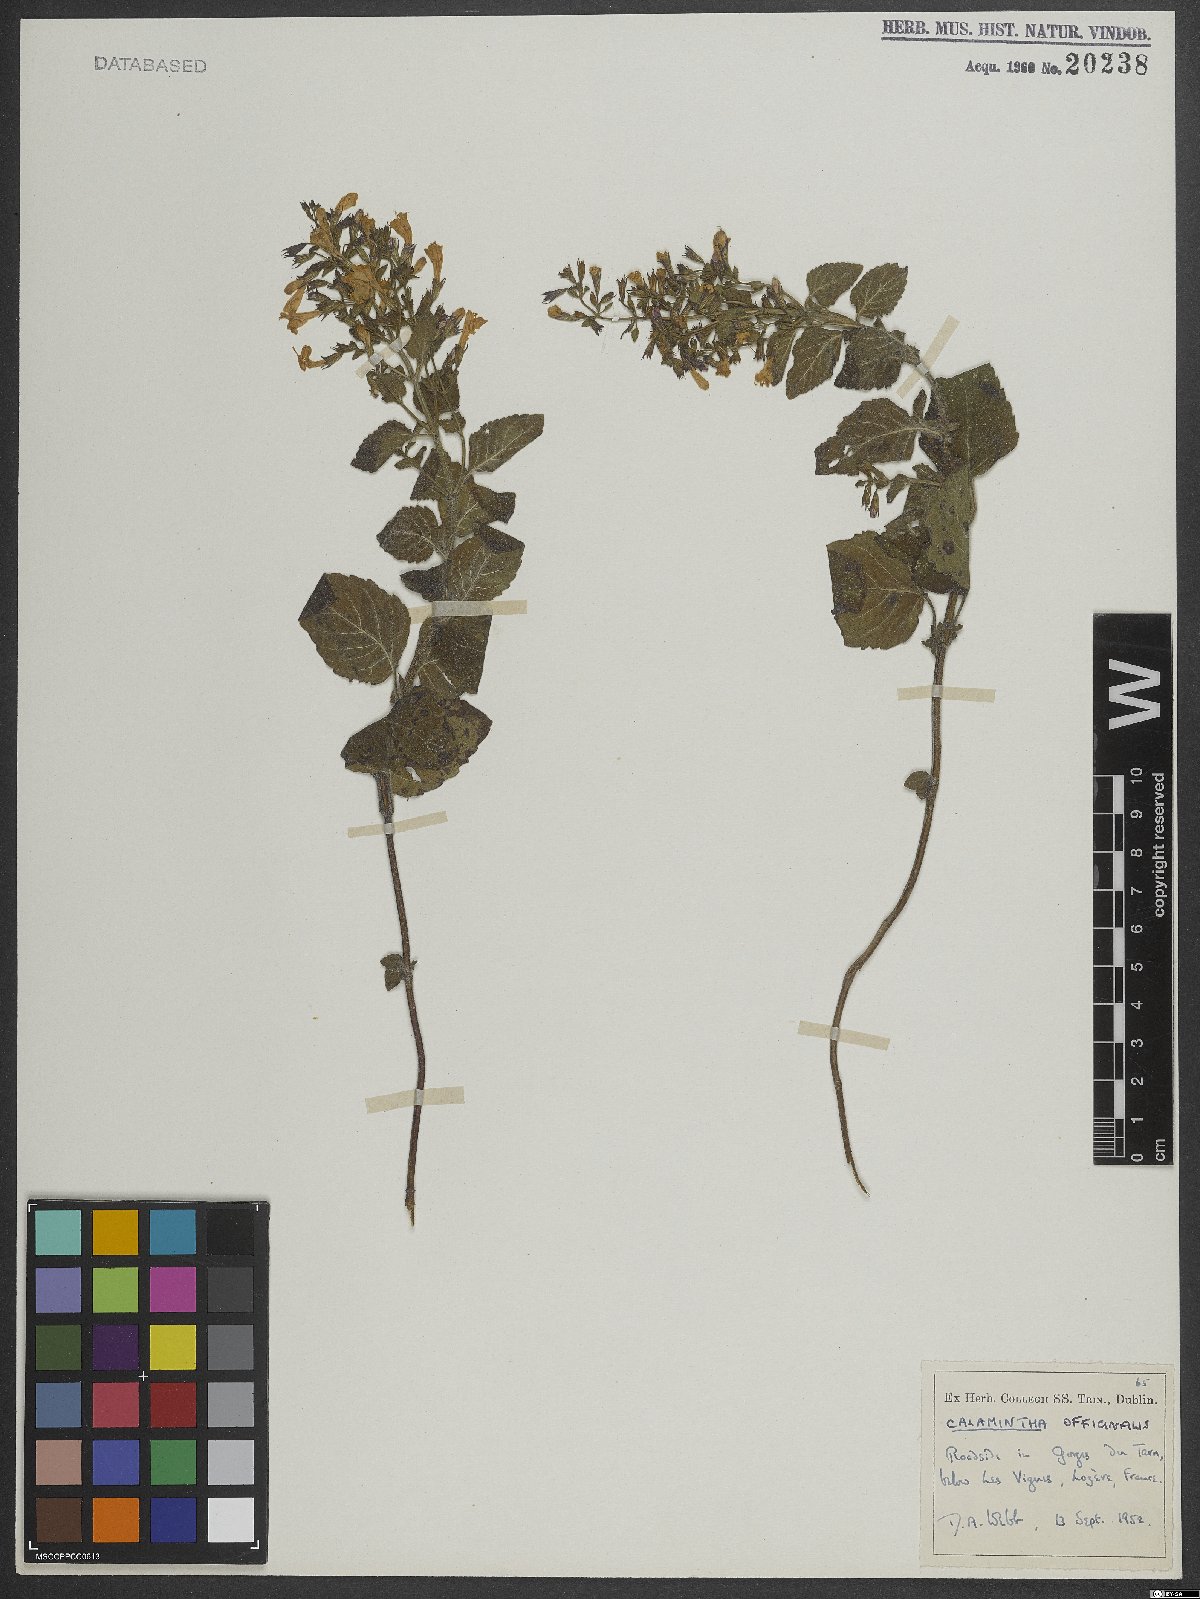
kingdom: Plantae
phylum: Tracheophyta
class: Magnoliopsida
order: Lamiales
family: Lamiaceae
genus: Clinopodium
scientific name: Clinopodium nepeta
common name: Lesser calamint
